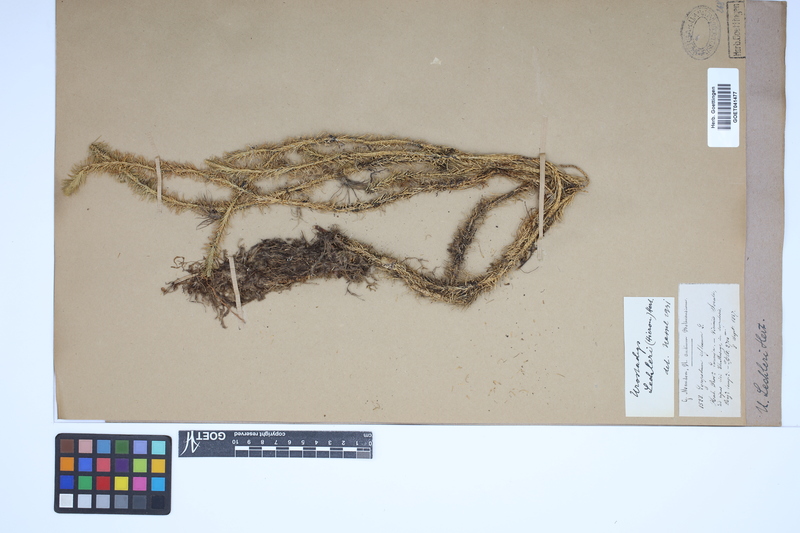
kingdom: Plantae
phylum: Tracheophyta
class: Lycopodiopsida
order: Lycopodiales
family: Lycopodiaceae
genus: Phlegmariurus
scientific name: Phlegmariurus
